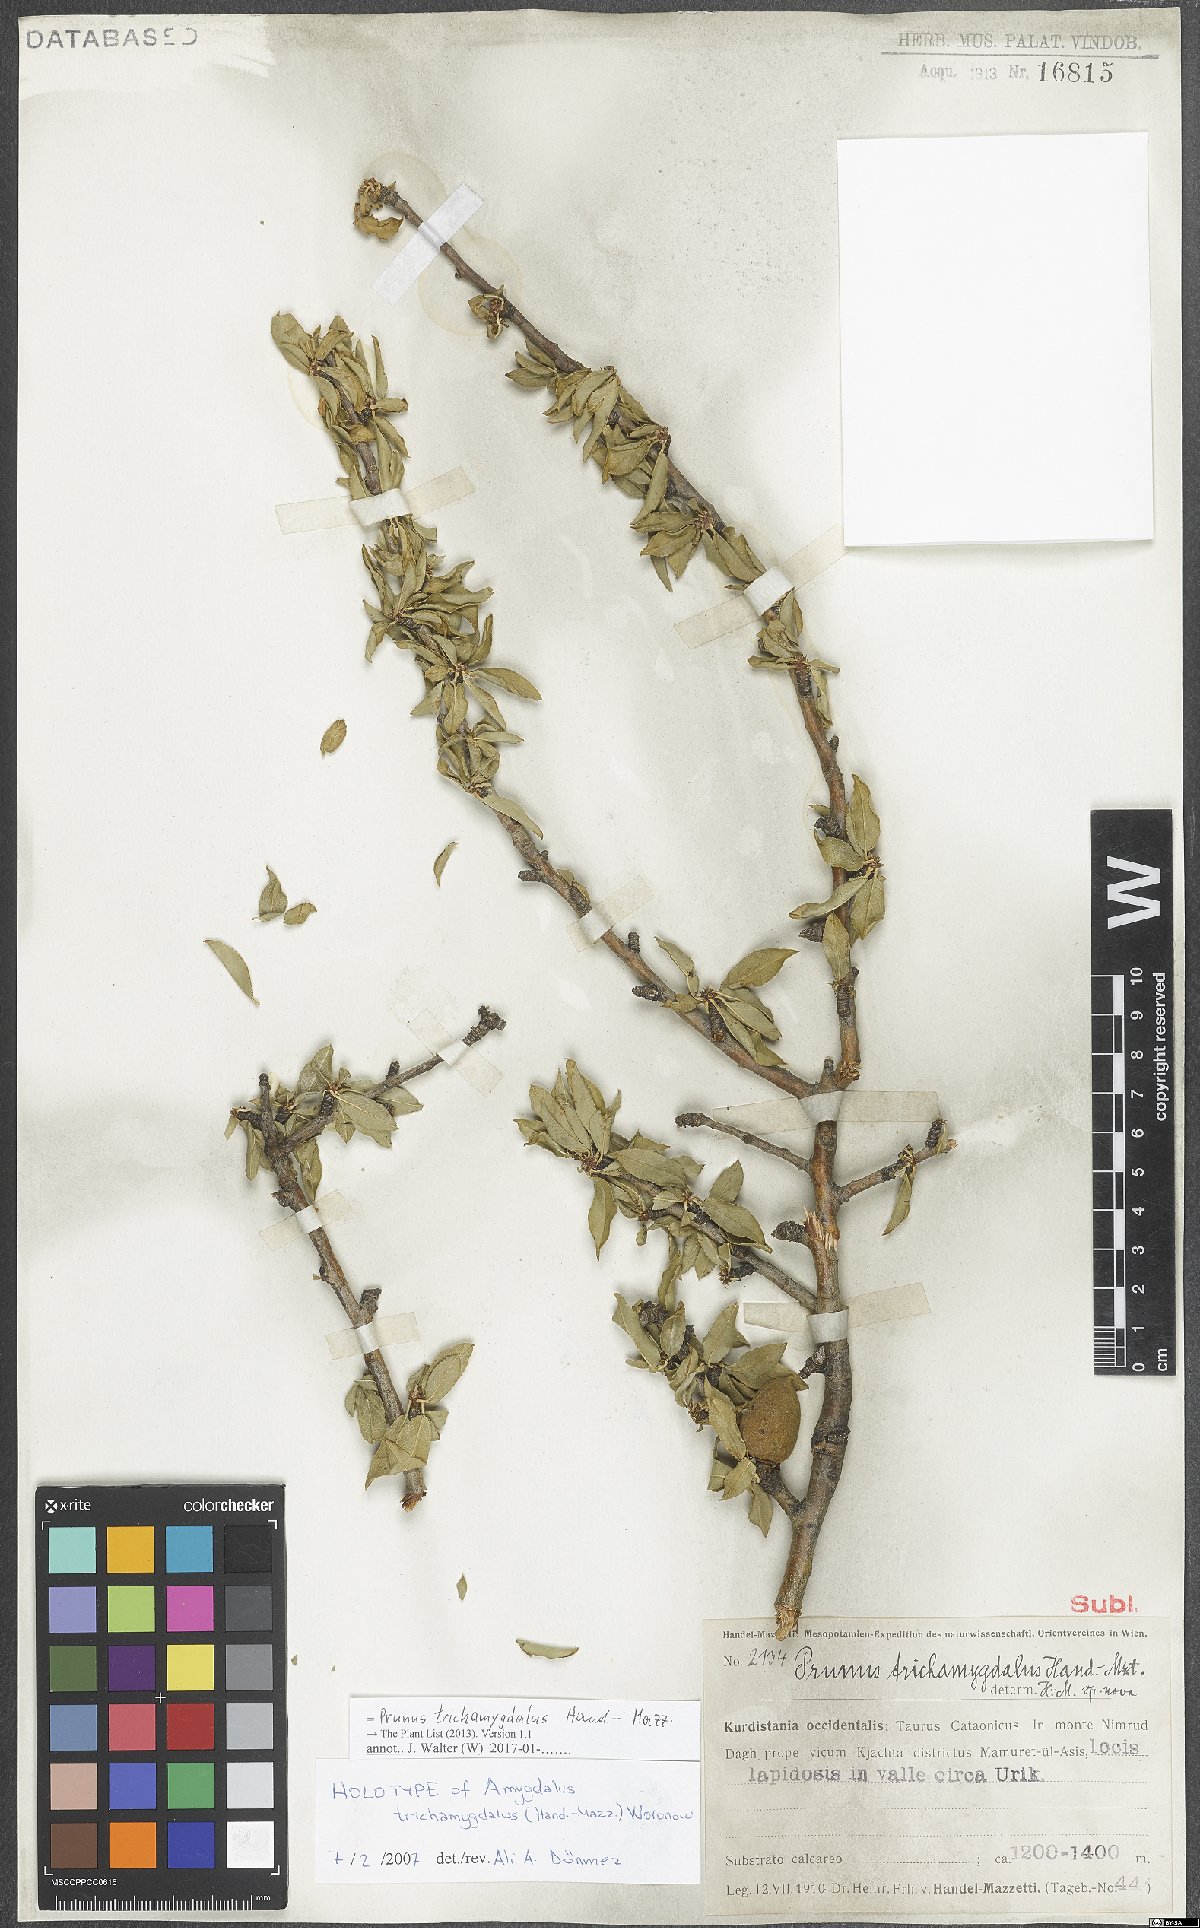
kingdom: Plantae
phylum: Tracheophyta
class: Magnoliopsida
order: Rosales
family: Rosaceae
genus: Prunus
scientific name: Prunus trichamygdalus
